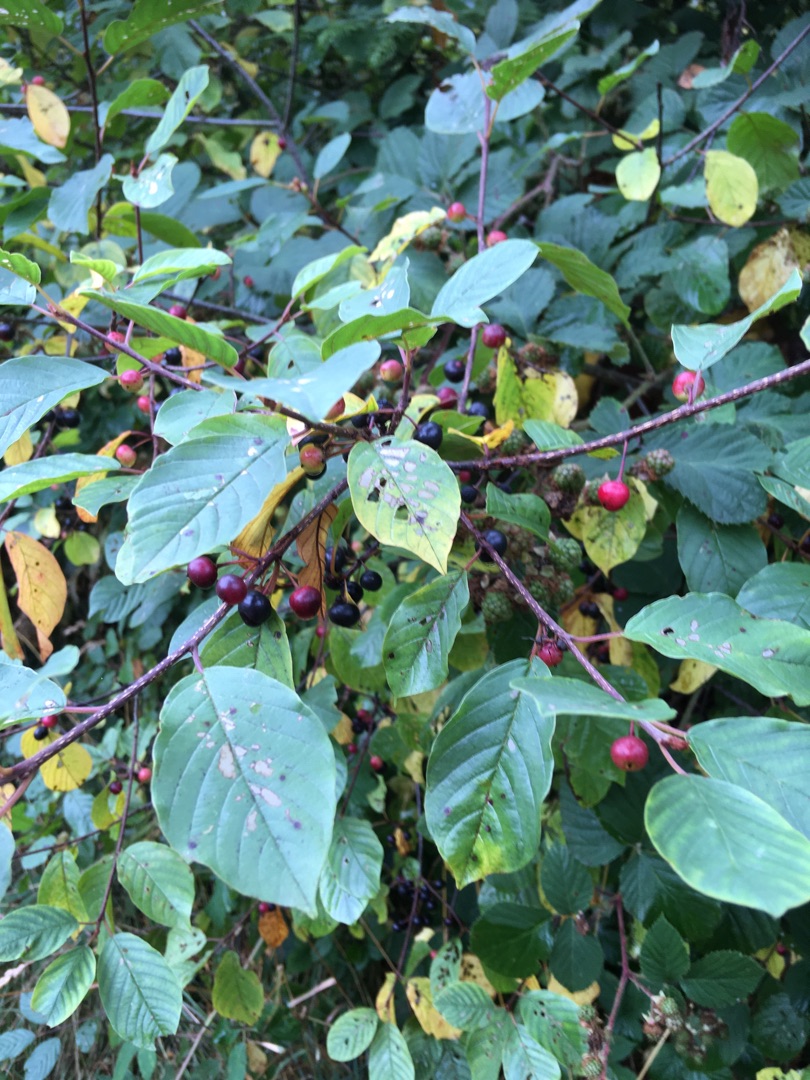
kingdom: Plantae
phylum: Tracheophyta
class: Magnoliopsida
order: Rosales
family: Rhamnaceae
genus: Frangula
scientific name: Frangula alnus
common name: Tørst
